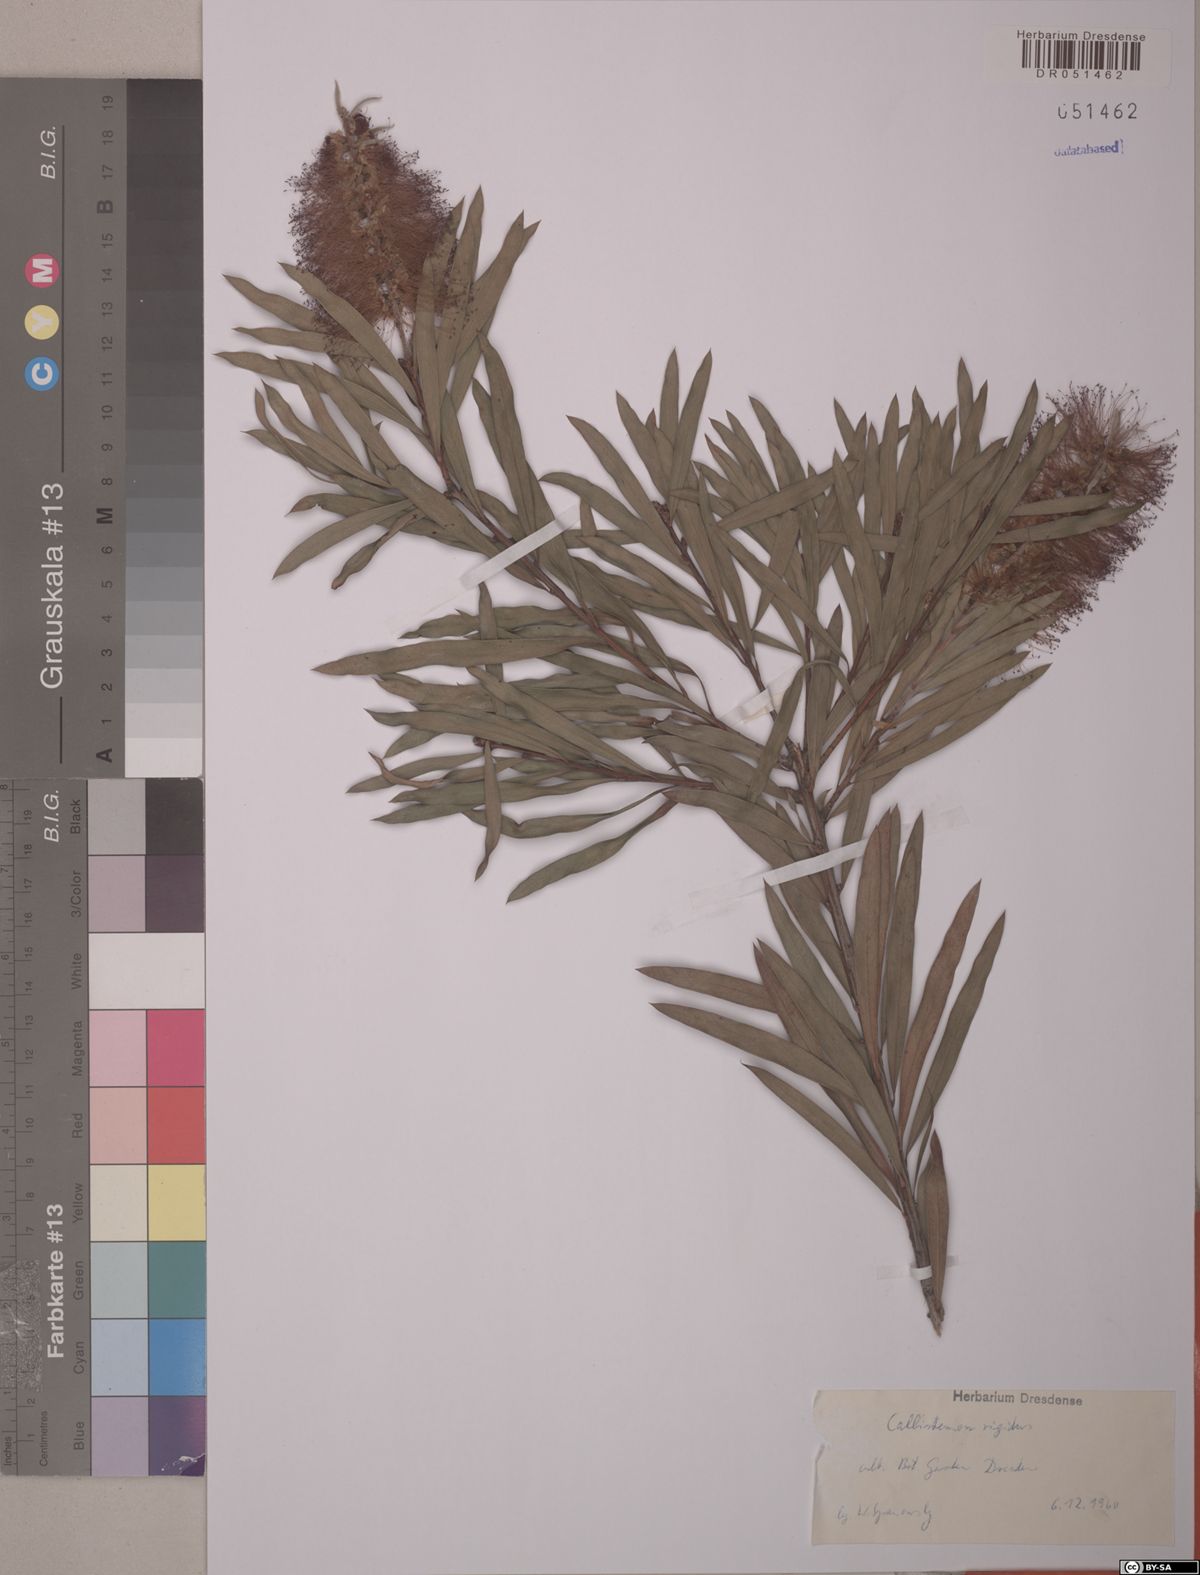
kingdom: Plantae
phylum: Tracheophyta
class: Magnoliopsida
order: Myrtales
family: Myrtaceae
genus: Callistemon
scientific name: Callistemon rigidus
